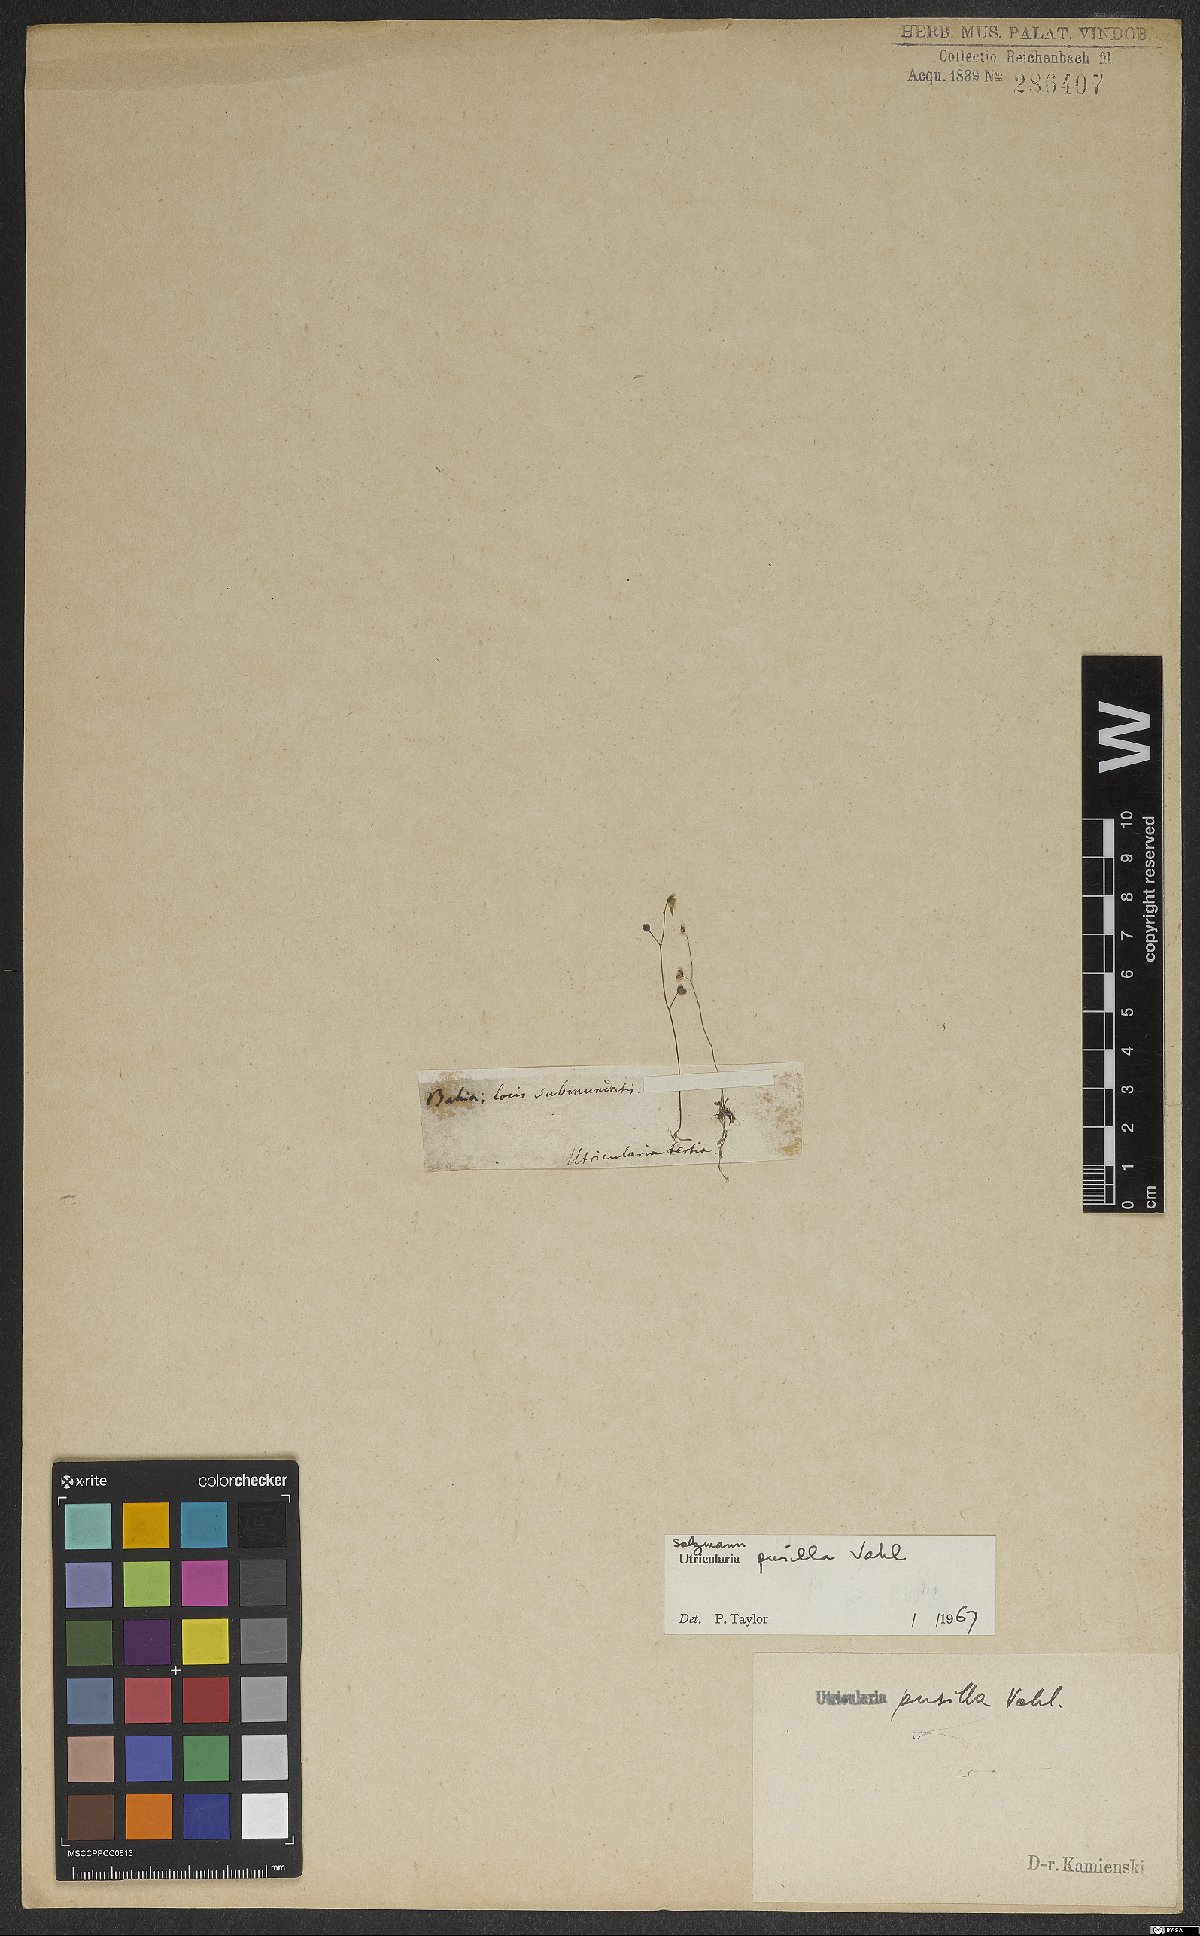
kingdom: Plantae
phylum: Tracheophyta
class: Magnoliopsida
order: Lamiales
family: Lentibulariaceae
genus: Utricularia
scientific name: Utricularia pusilla
